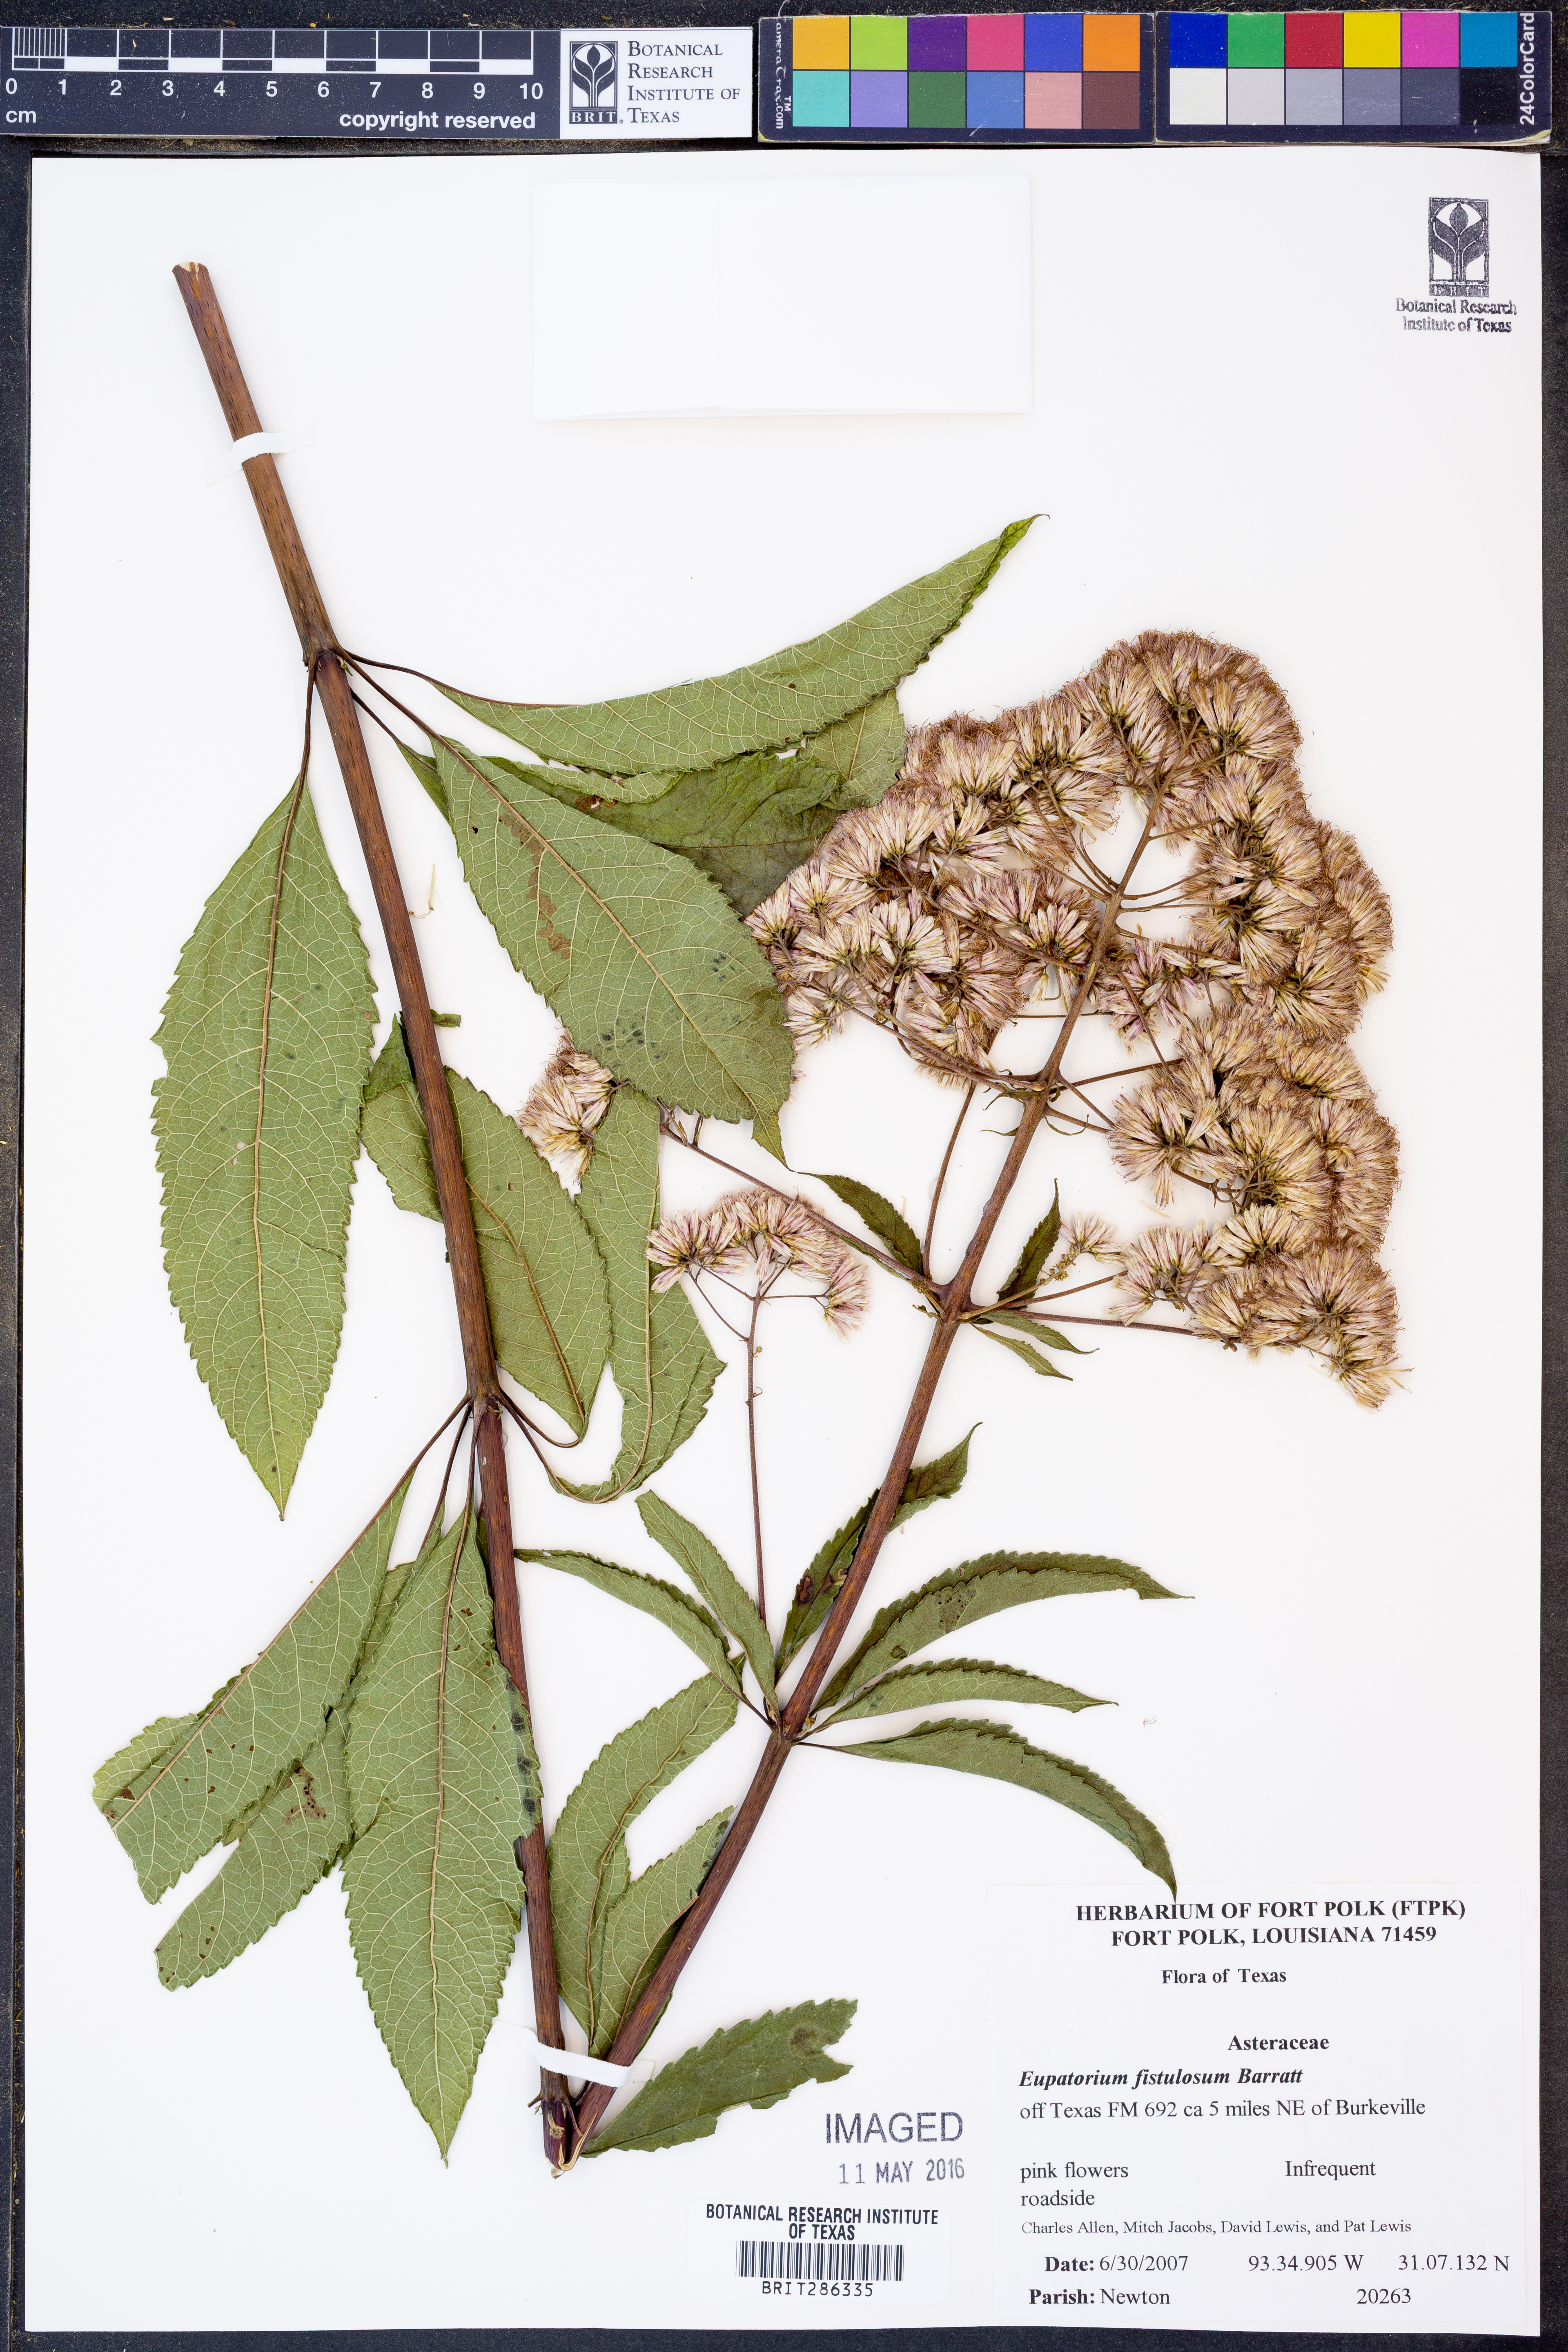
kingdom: Plantae
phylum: Tracheophyta
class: Magnoliopsida
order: Asterales
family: Asteraceae
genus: Eutrochium
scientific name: Eutrochium fistulosum
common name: Trumpetweed
